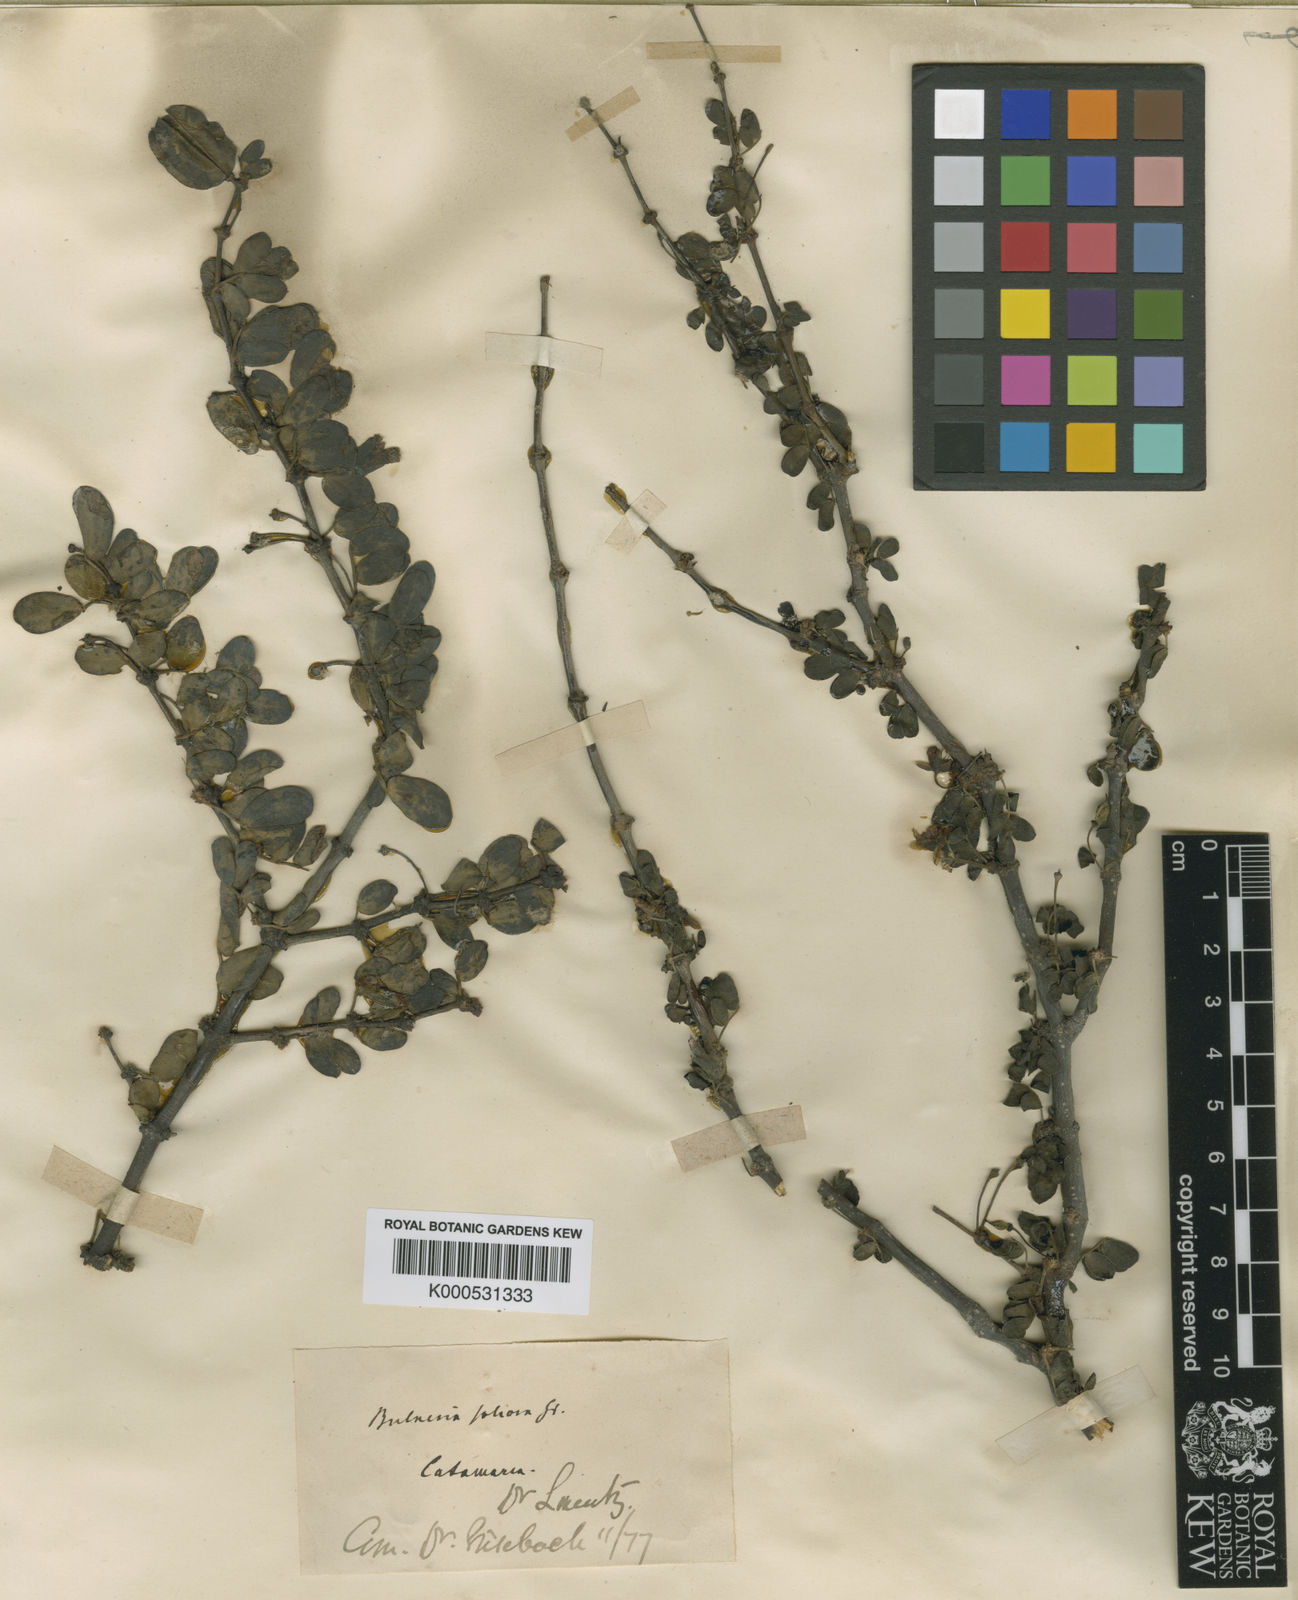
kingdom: Plantae
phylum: Tracheophyta
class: Magnoliopsida
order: Zygophyllales
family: Zygophyllaceae
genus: Bulnesia
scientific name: Bulnesia foliosa
